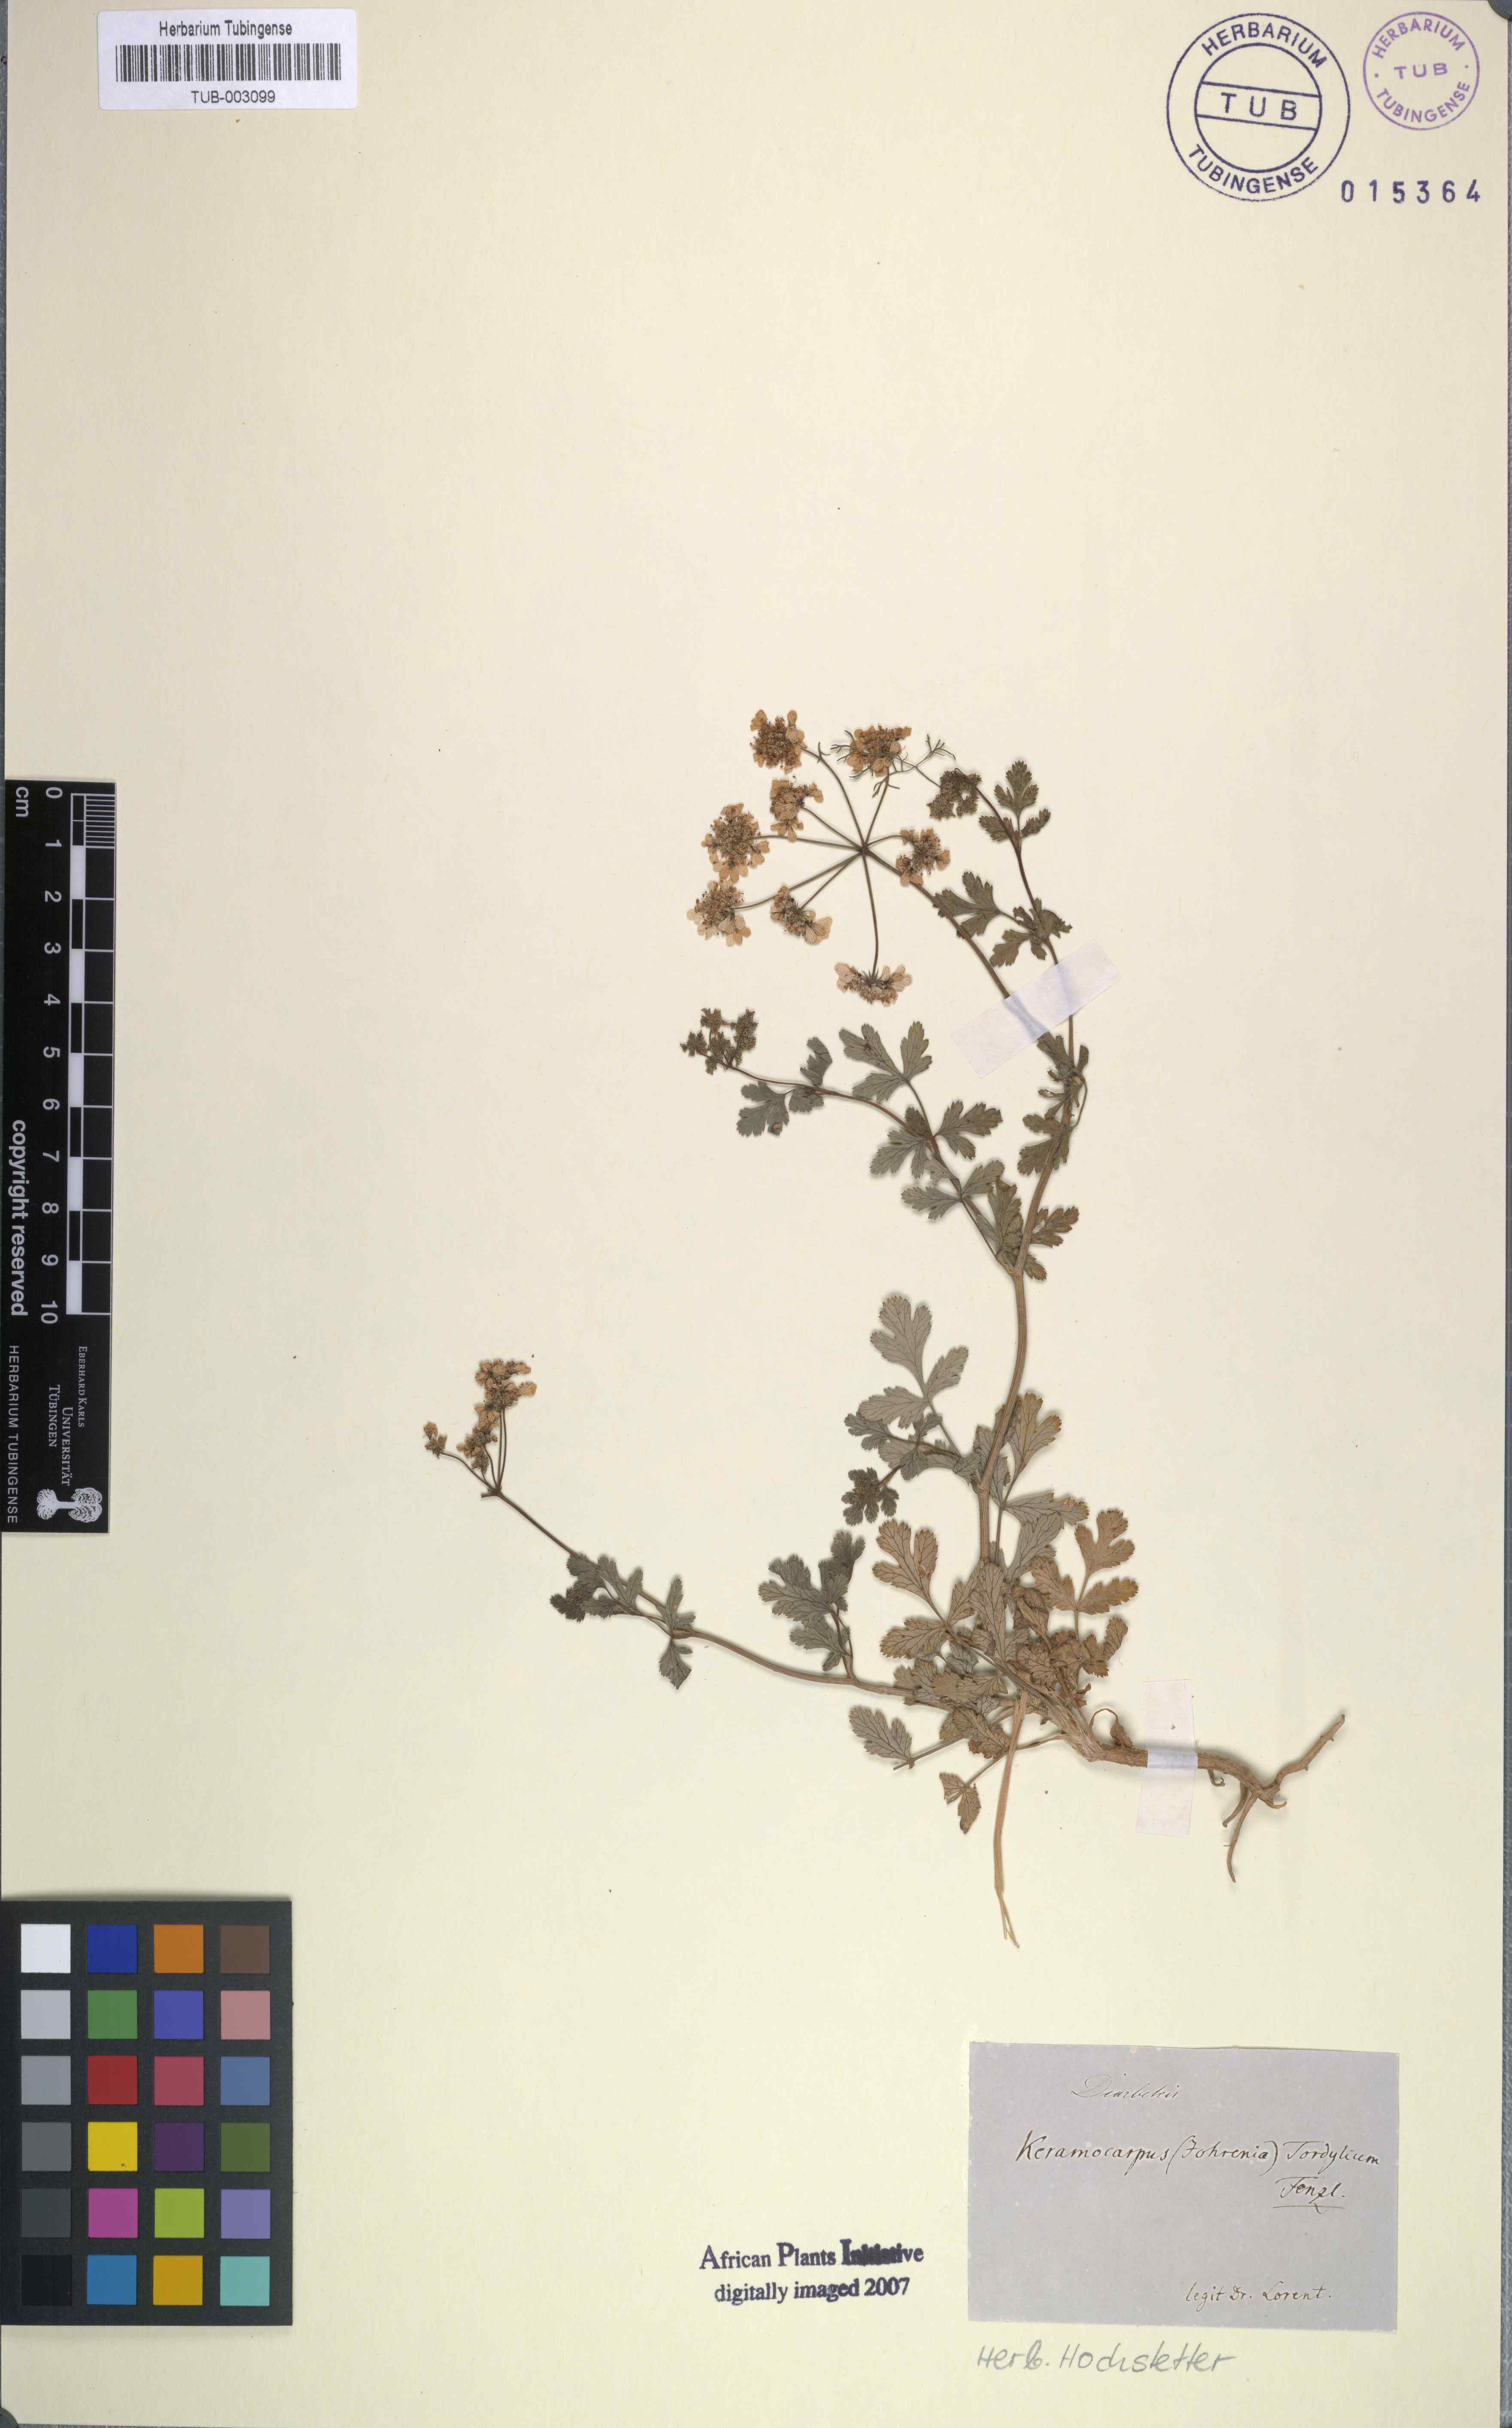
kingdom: Plantae
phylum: Tracheophyta
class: Magnoliopsida
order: Apiales
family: Apiaceae
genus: Coriandrum
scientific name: Coriandrum tordylium
